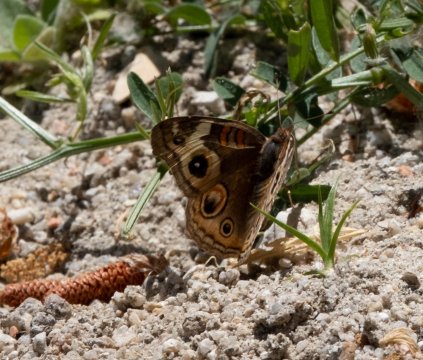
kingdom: Animalia
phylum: Arthropoda
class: Insecta
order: Lepidoptera
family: Nymphalidae
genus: Junonia
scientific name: Junonia coenia
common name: Common Buckeye
